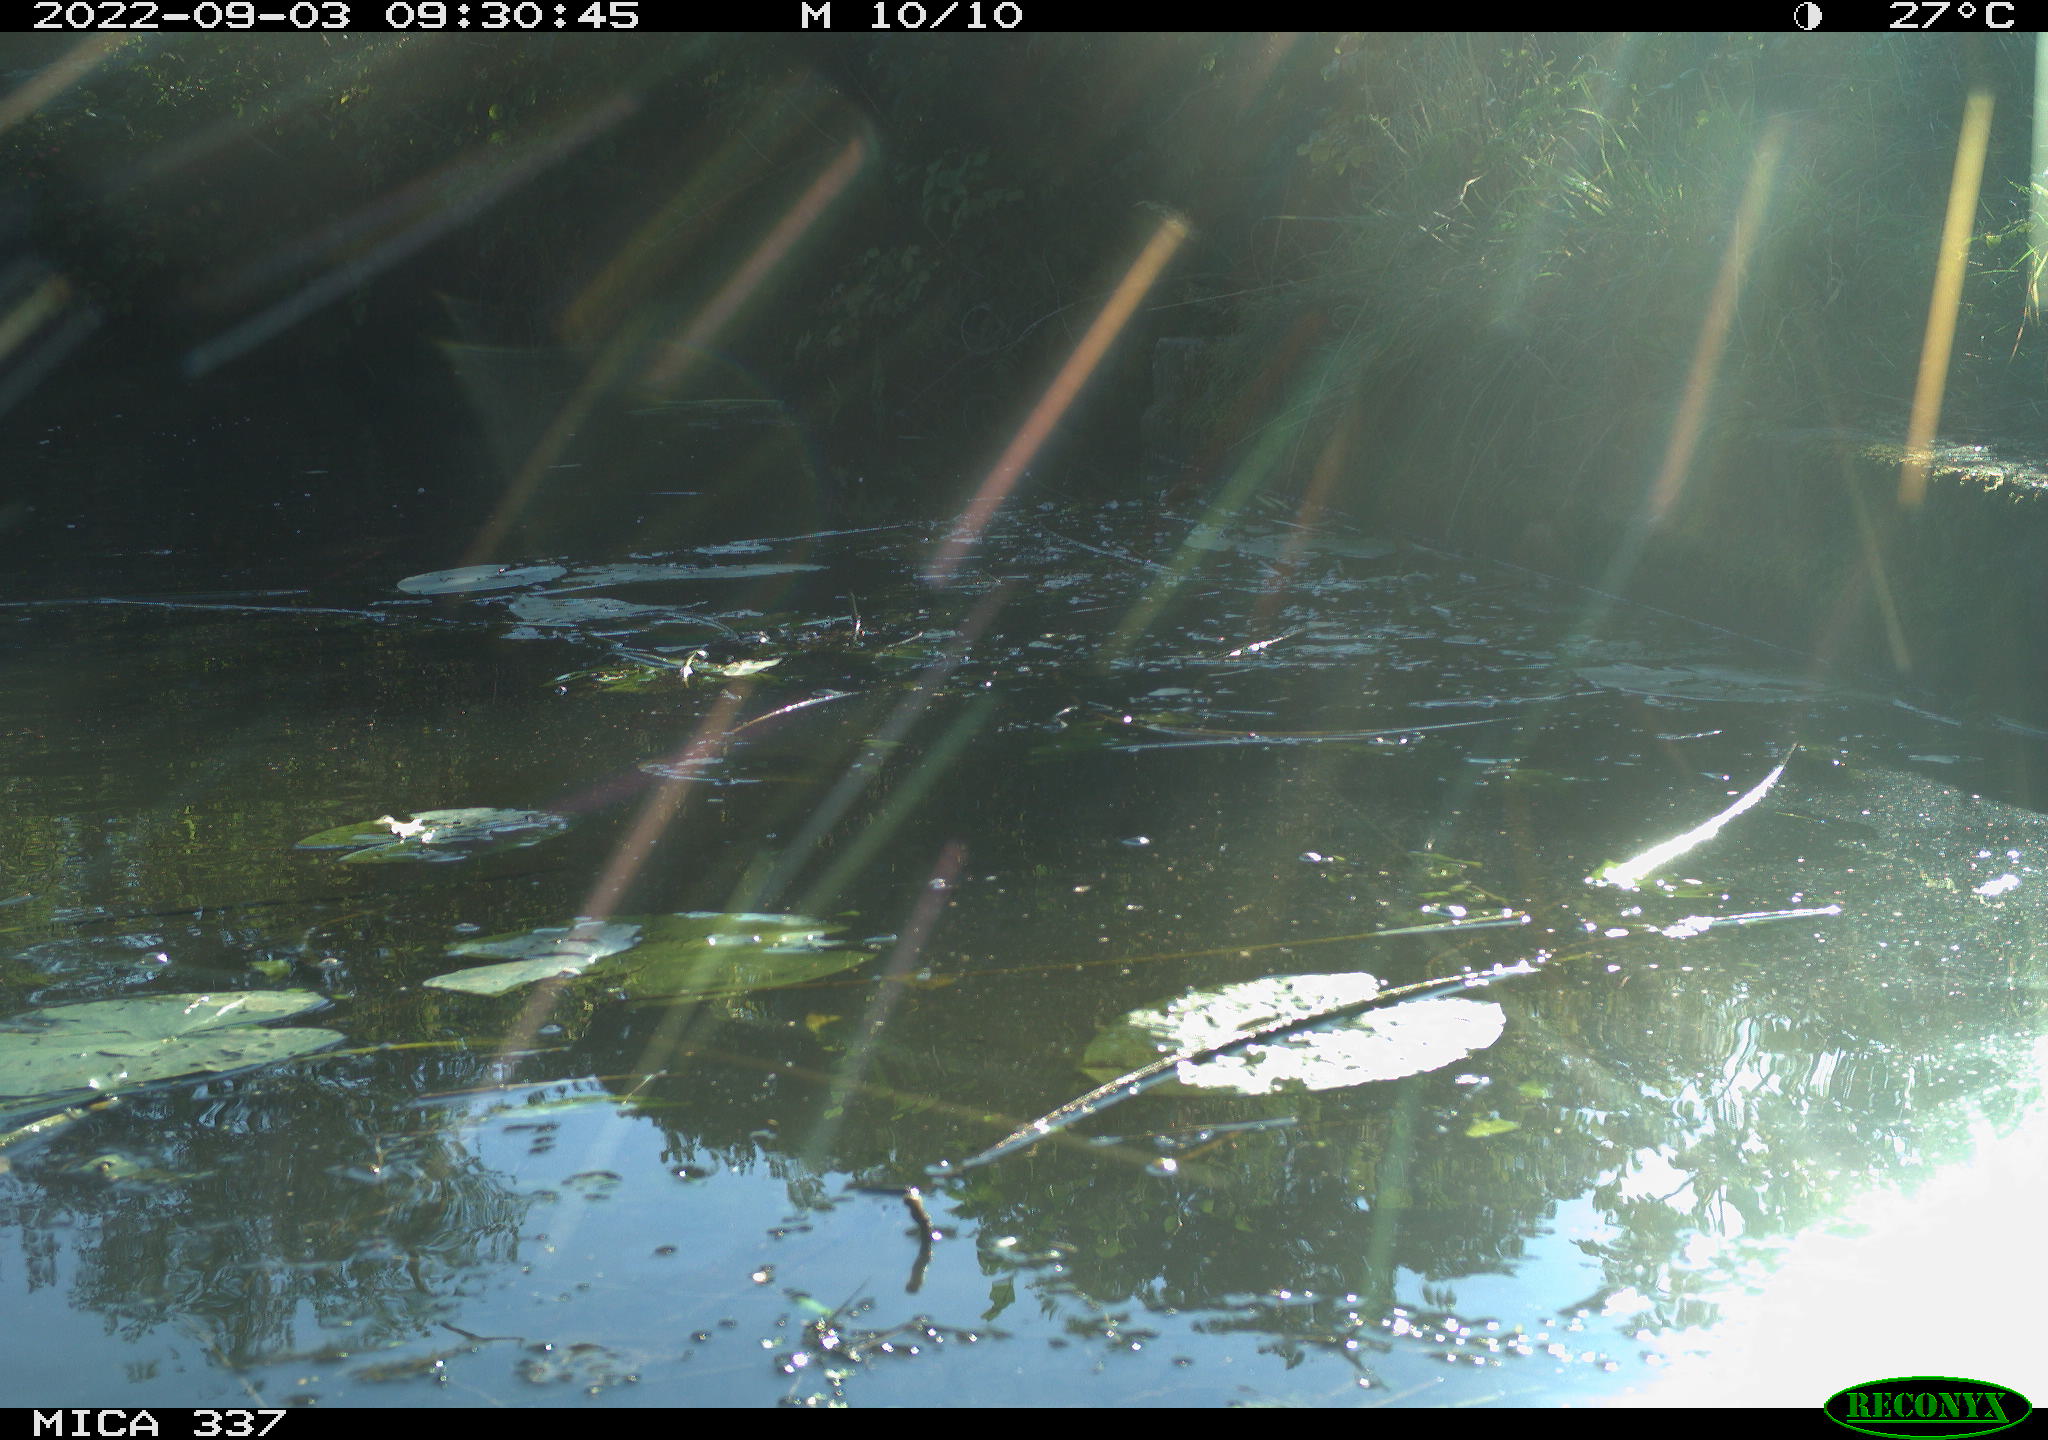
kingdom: Animalia
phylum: Chordata
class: Aves
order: Anseriformes
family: Anatidae
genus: Anas
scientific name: Anas platyrhynchos
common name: Mallard
